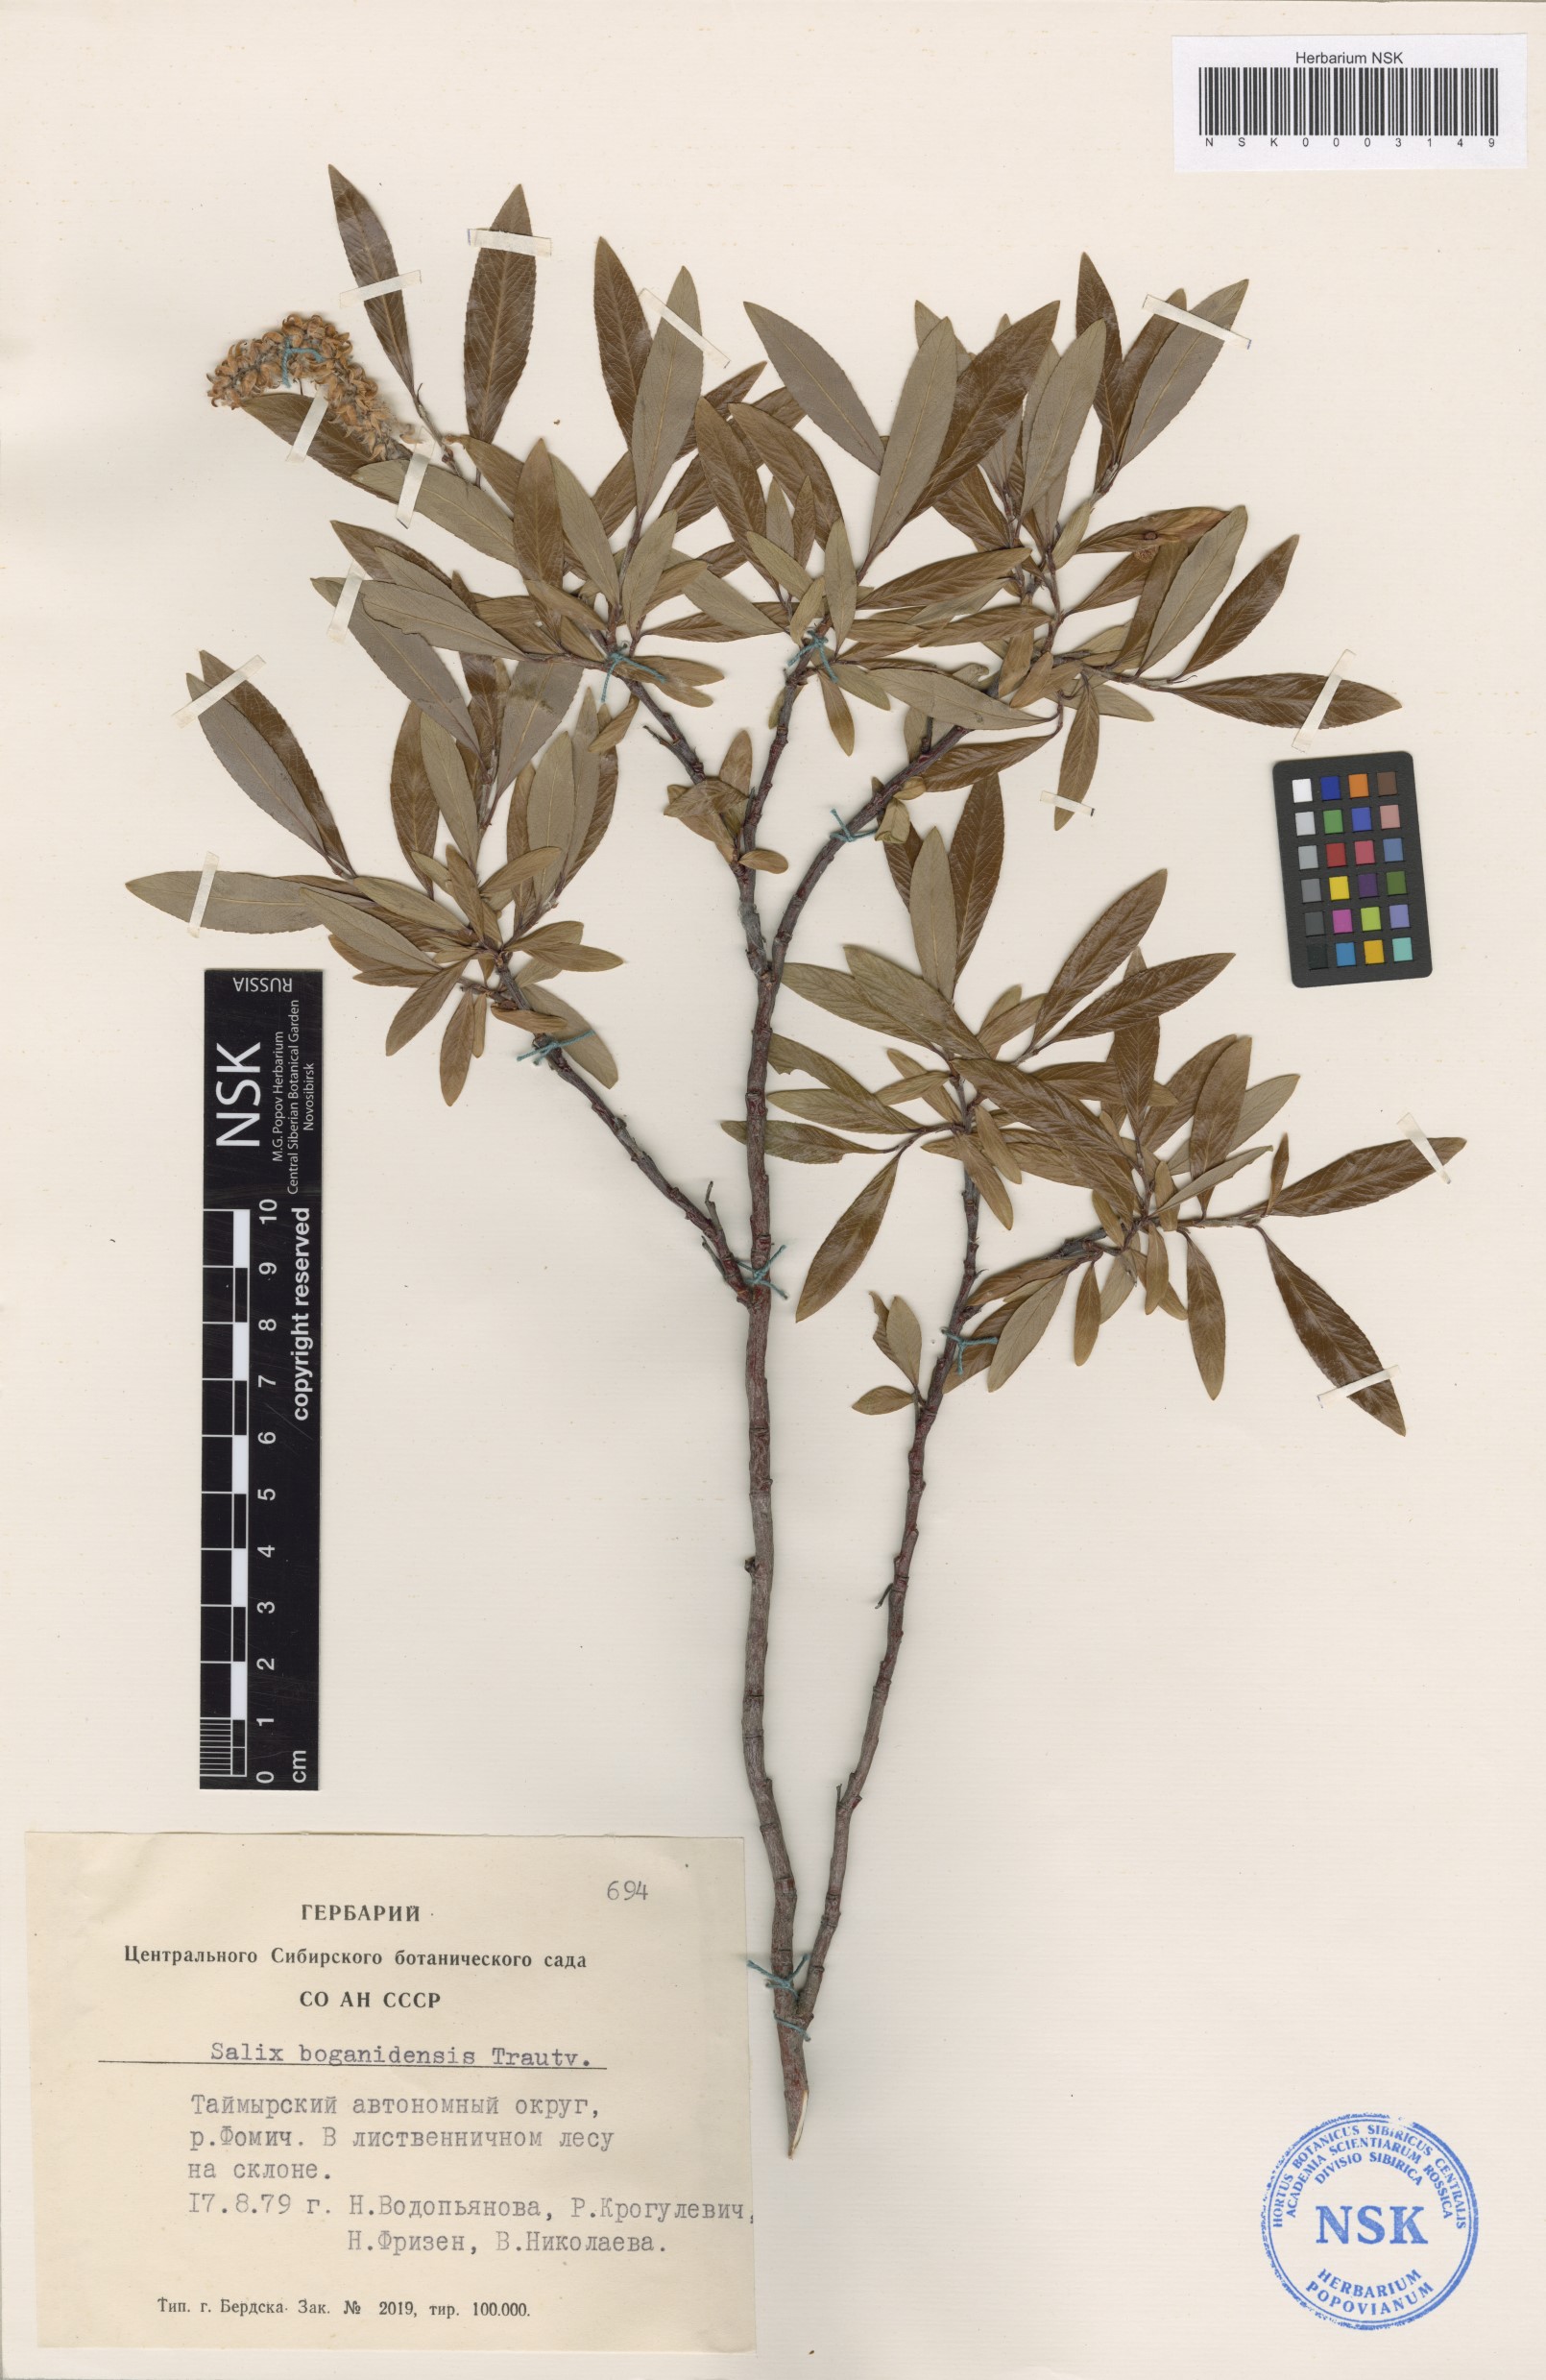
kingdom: Plantae
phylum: Tracheophyta
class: Magnoliopsida
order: Malpighiales
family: Salicaceae
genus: Salix
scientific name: Salix boganidensis
